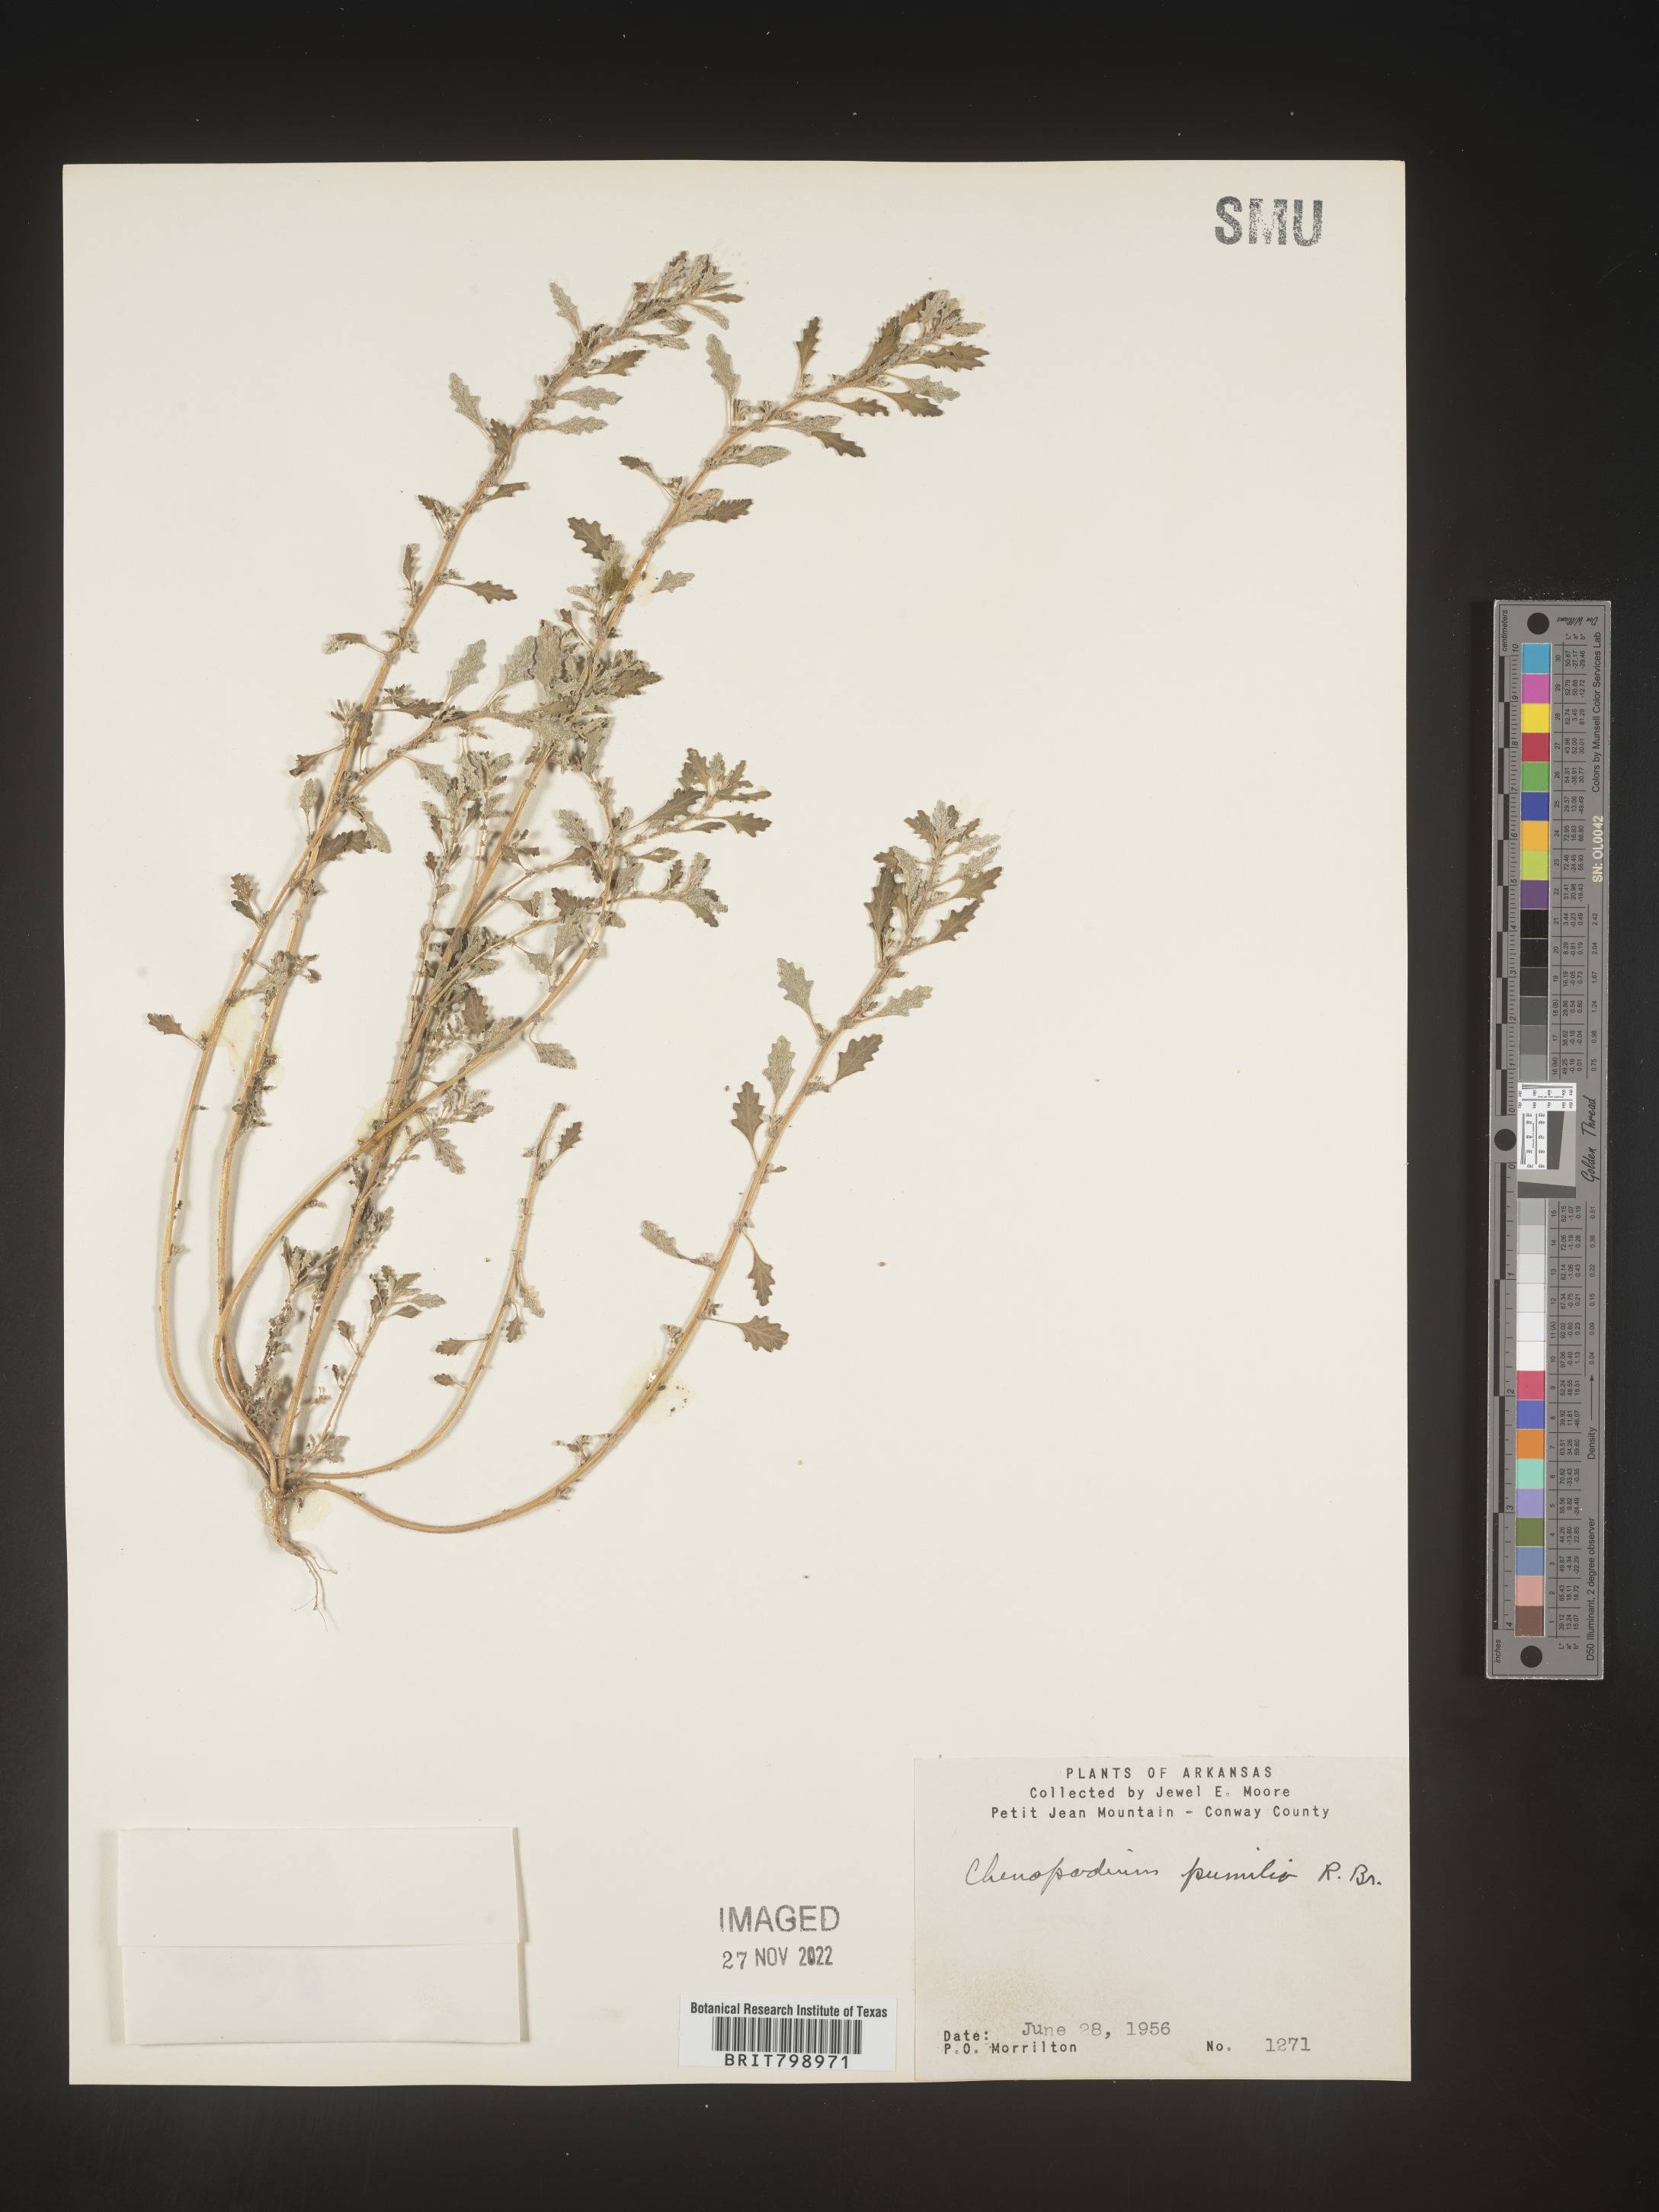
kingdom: Plantae
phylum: Tracheophyta
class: Magnoliopsida
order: Caryophyllales
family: Amaranthaceae
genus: Dysphania
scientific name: Dysphania pumilio
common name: Clammy goosefoot
